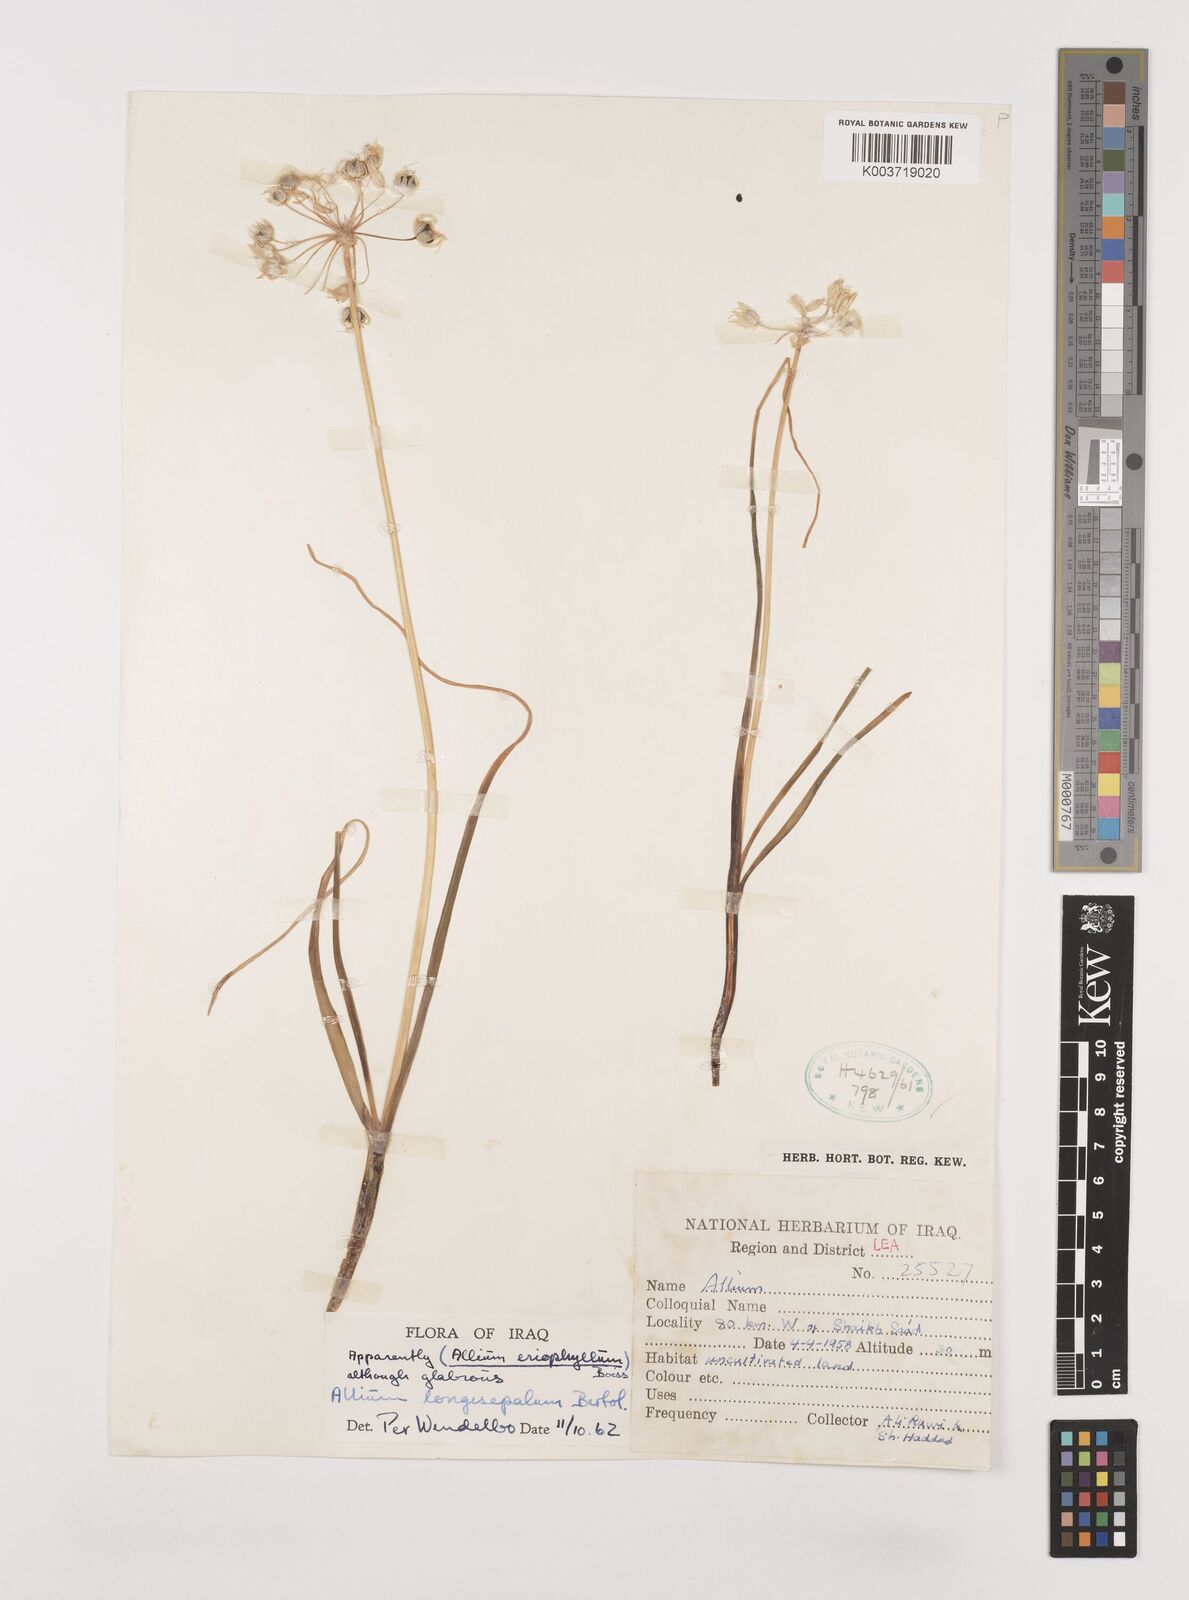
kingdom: Plantae
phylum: Tracheophyta
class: Liliopsida
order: Asparagales
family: Amaryllidaceae
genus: Allium
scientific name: Allium longisepalum
